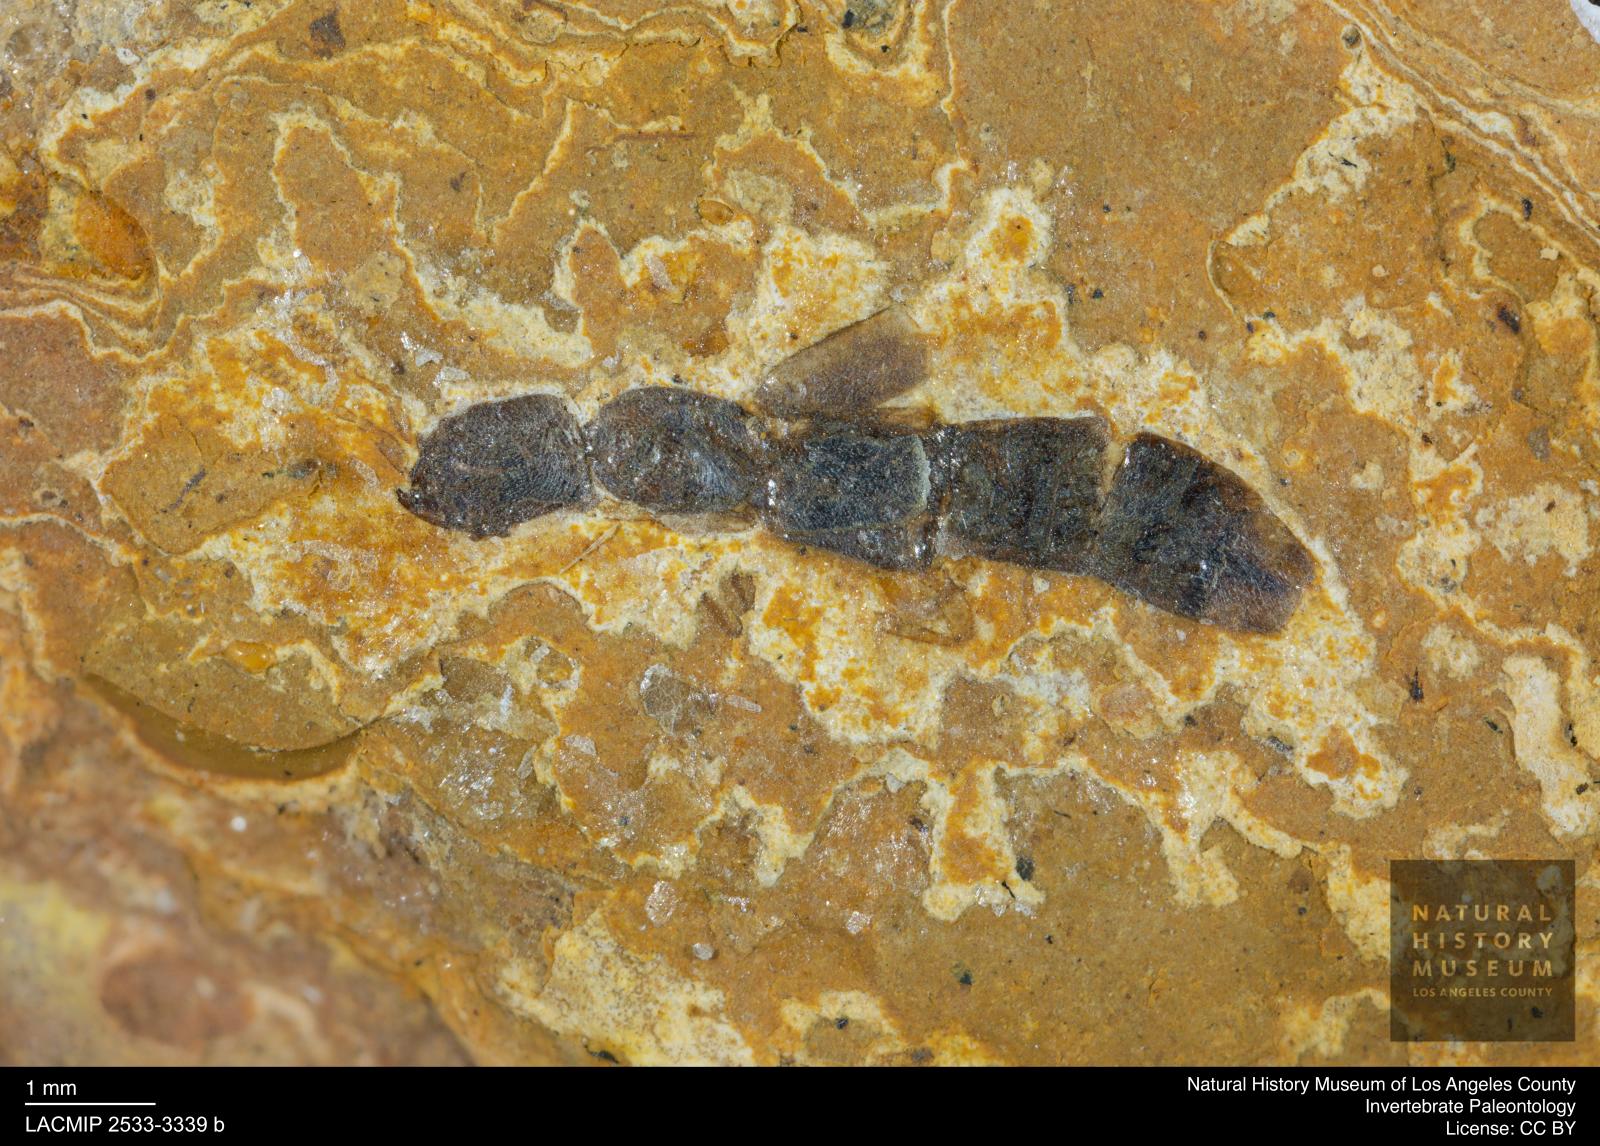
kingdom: Animalia
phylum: Arthropoda
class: Insecta
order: Coleoptera
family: Staphylinidae
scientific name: Staphylinidae
